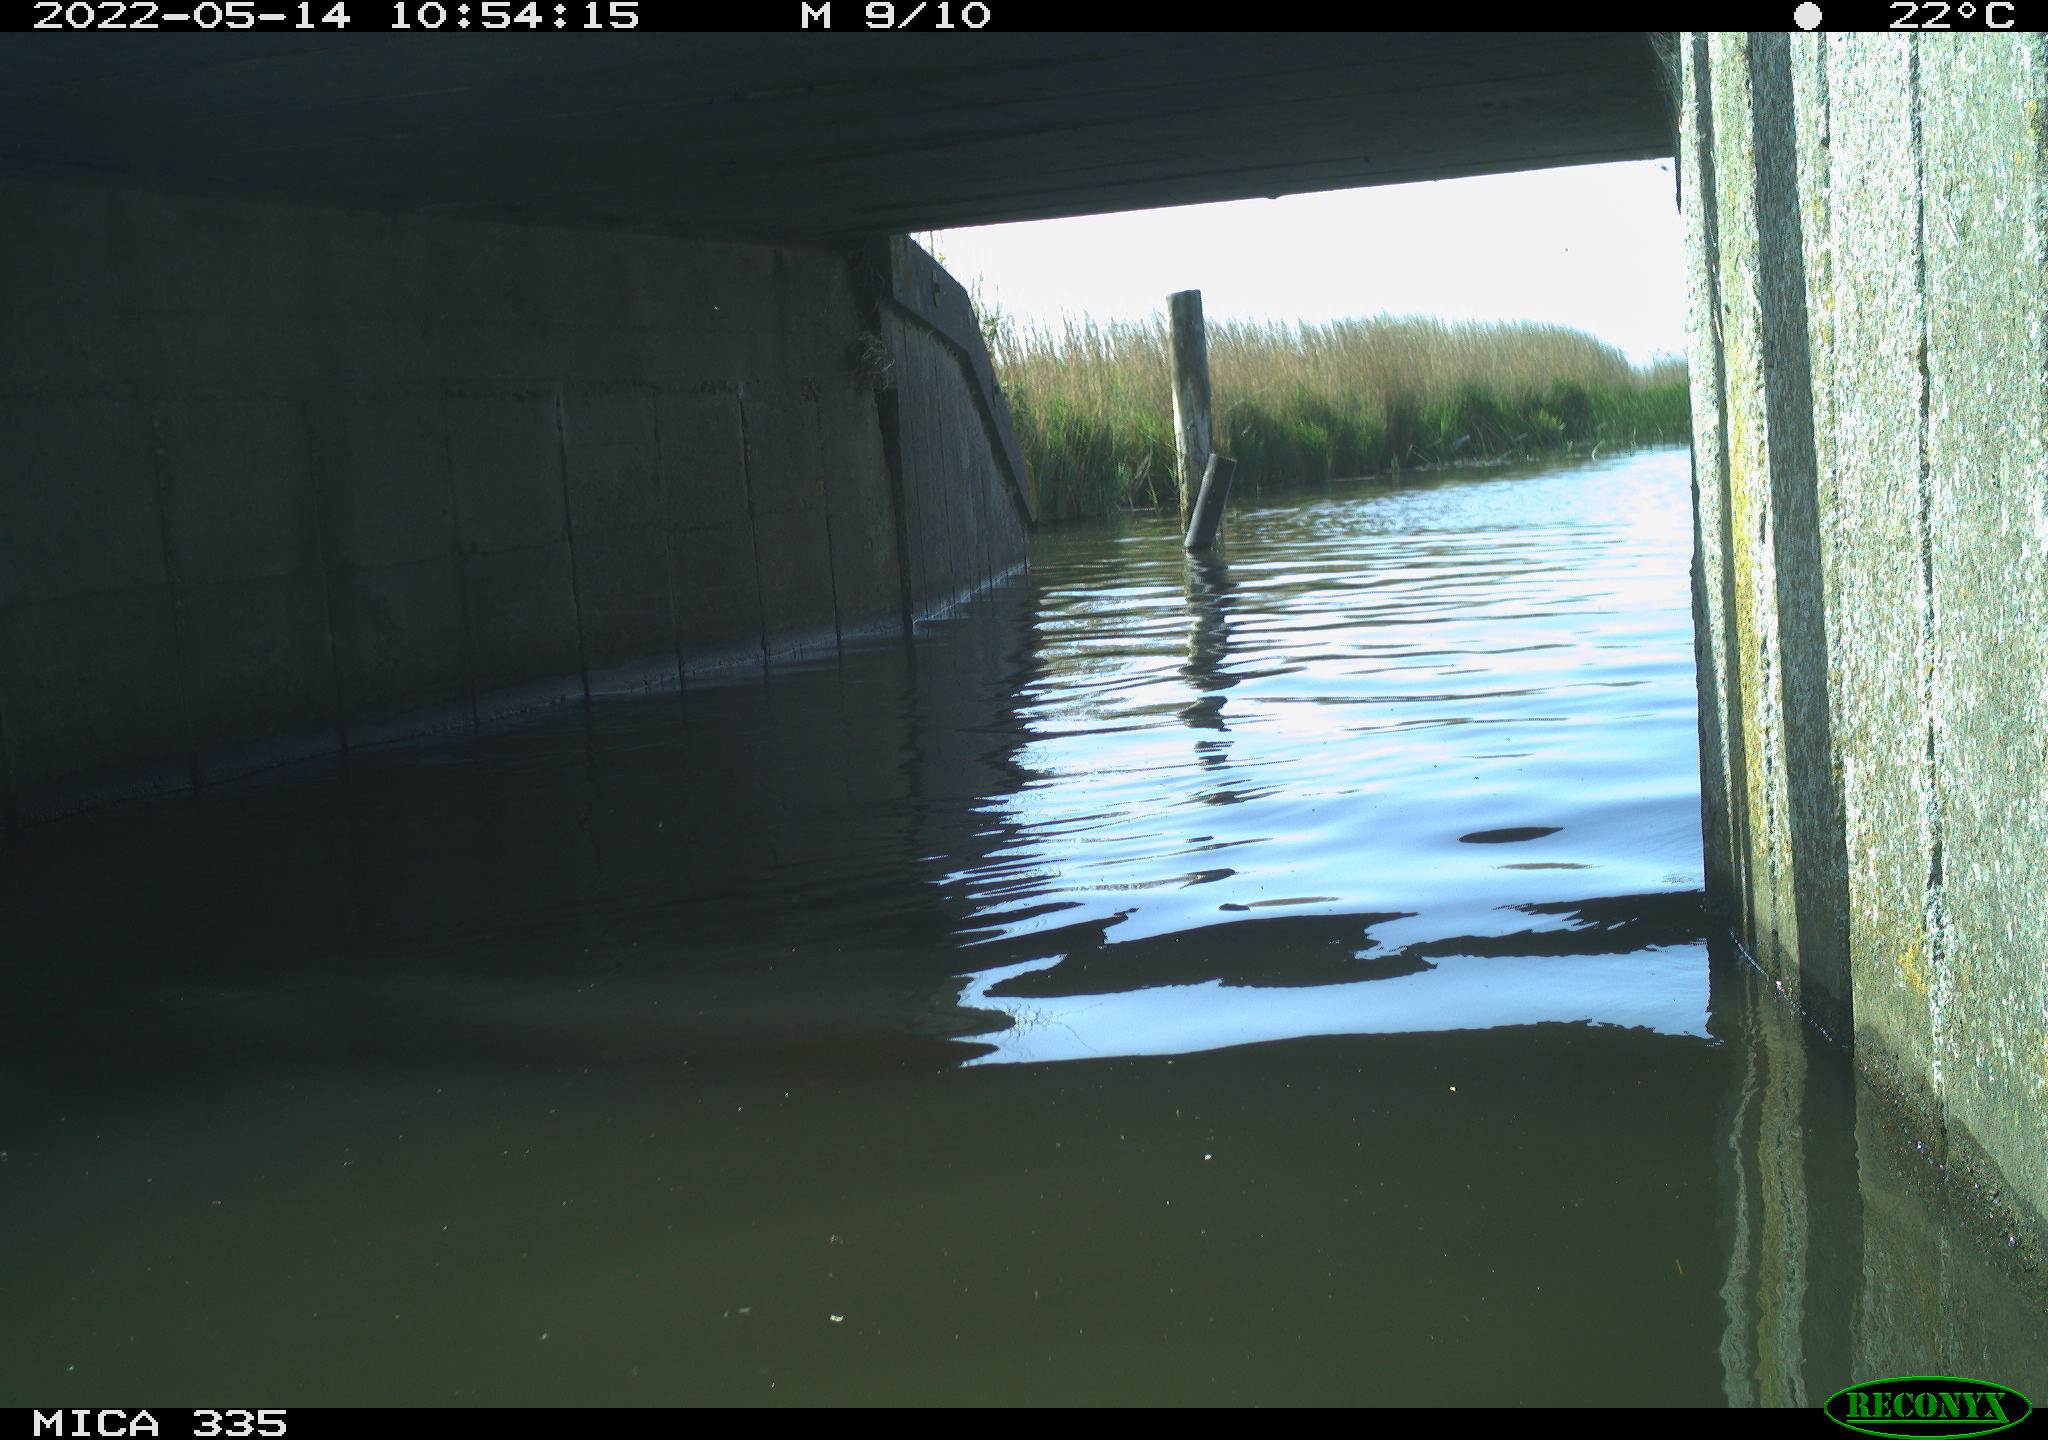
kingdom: Animalia
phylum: Chordata
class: Aves
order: Anseriformes
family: Anatidae
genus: Anas
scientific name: Anas platyrhynchos
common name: Mallard
